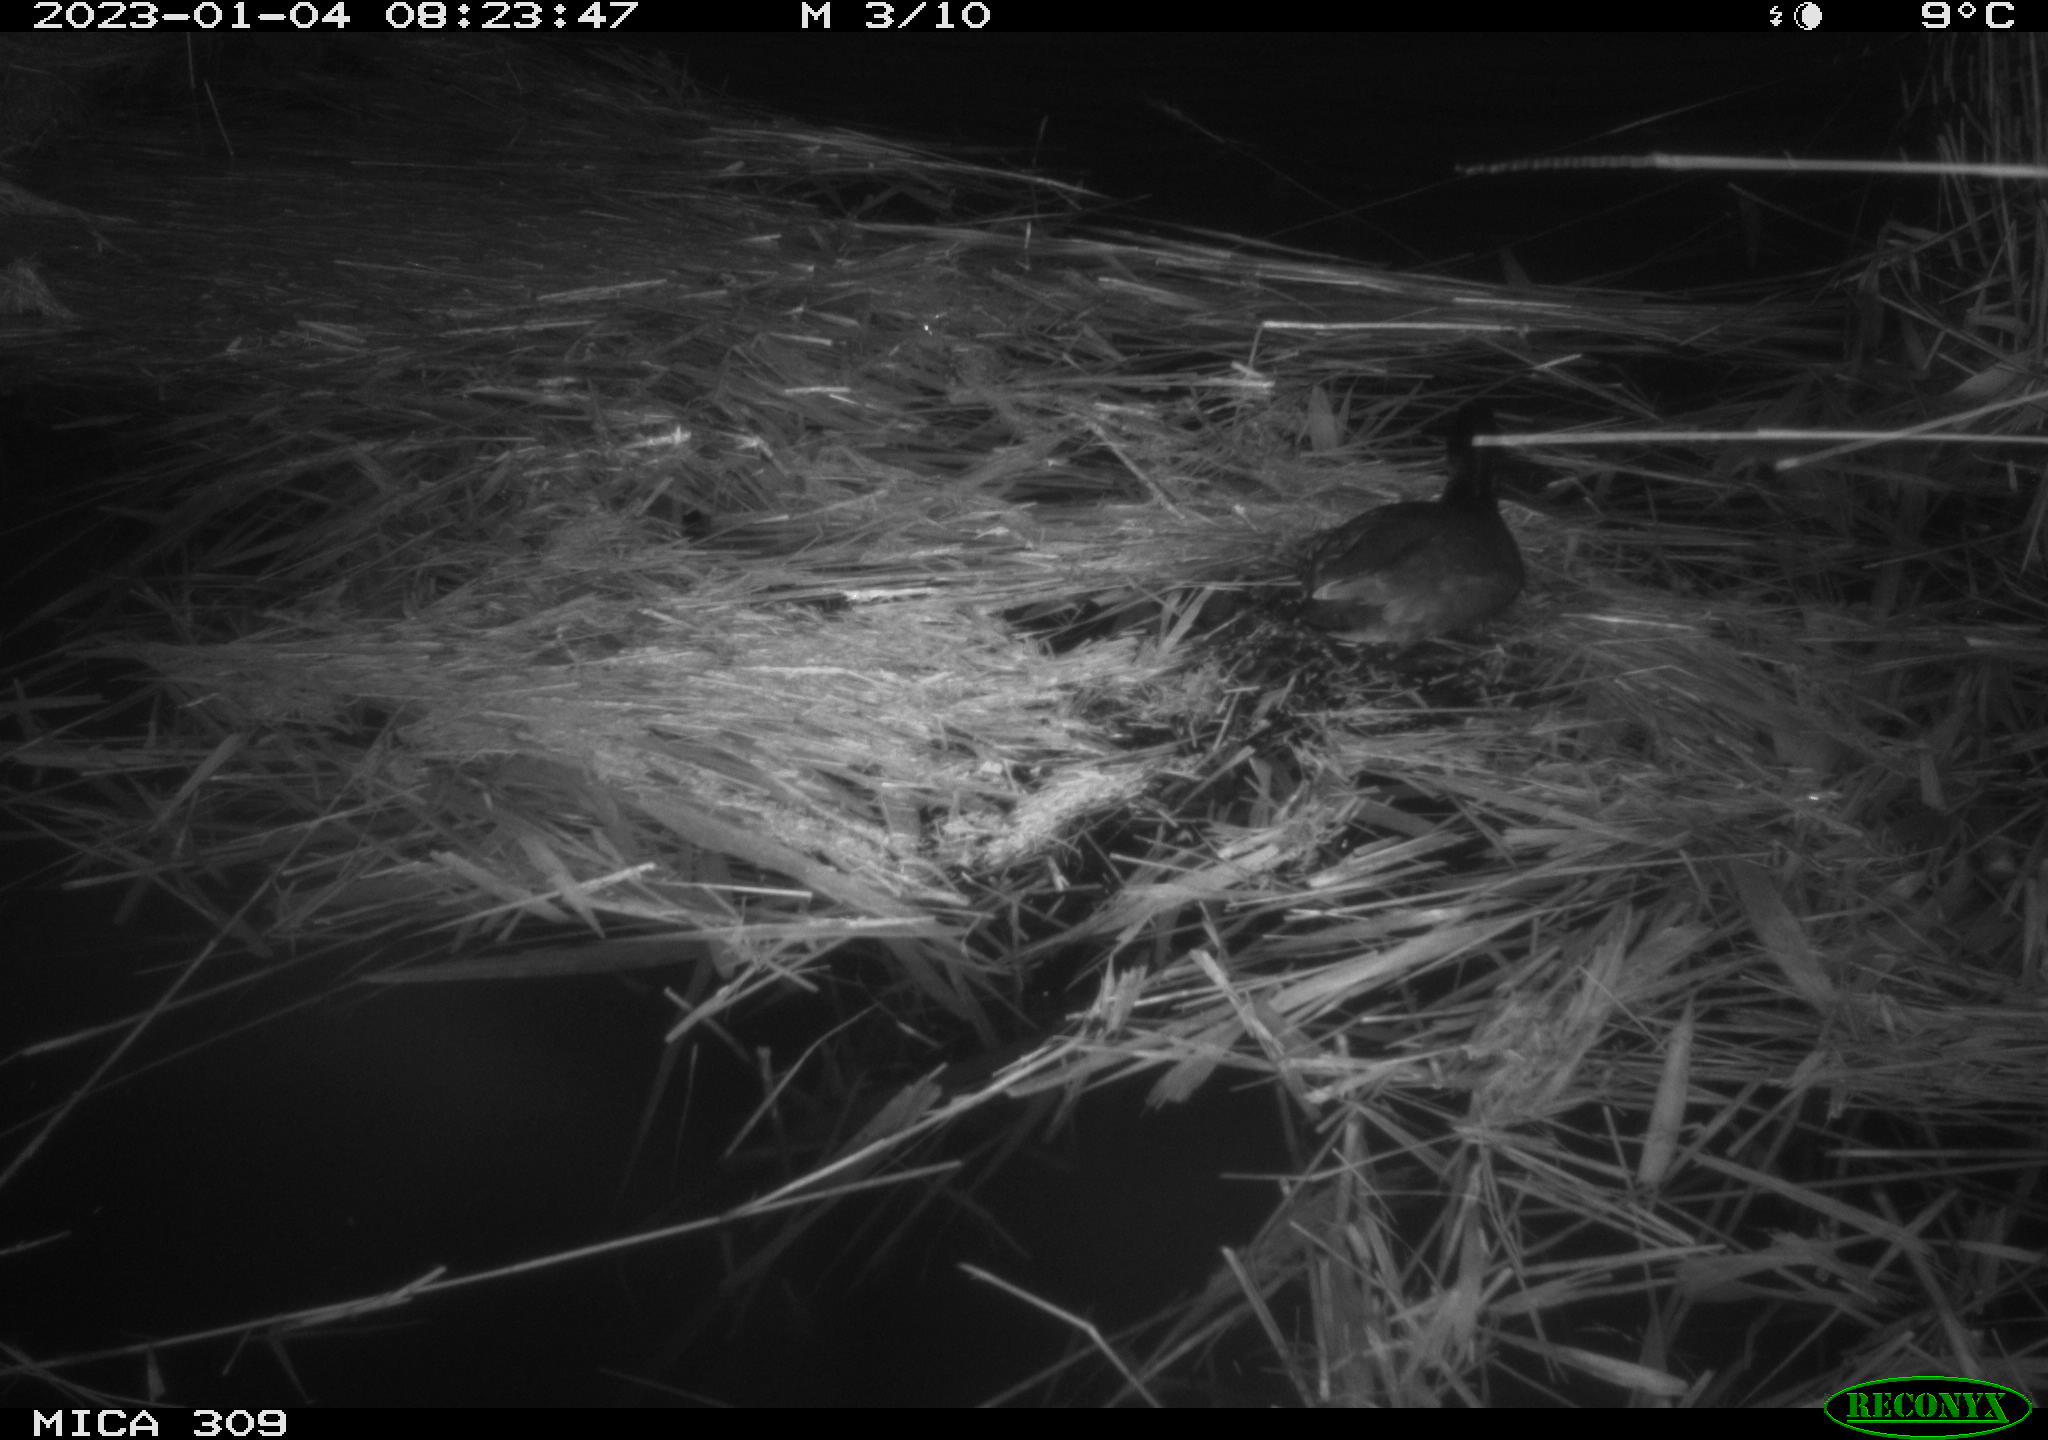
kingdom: Animalia
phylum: Chordata
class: Aves
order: Gruiformes
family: Rallidae
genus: Fulica
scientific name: Fulica atra
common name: Eurasian coot
